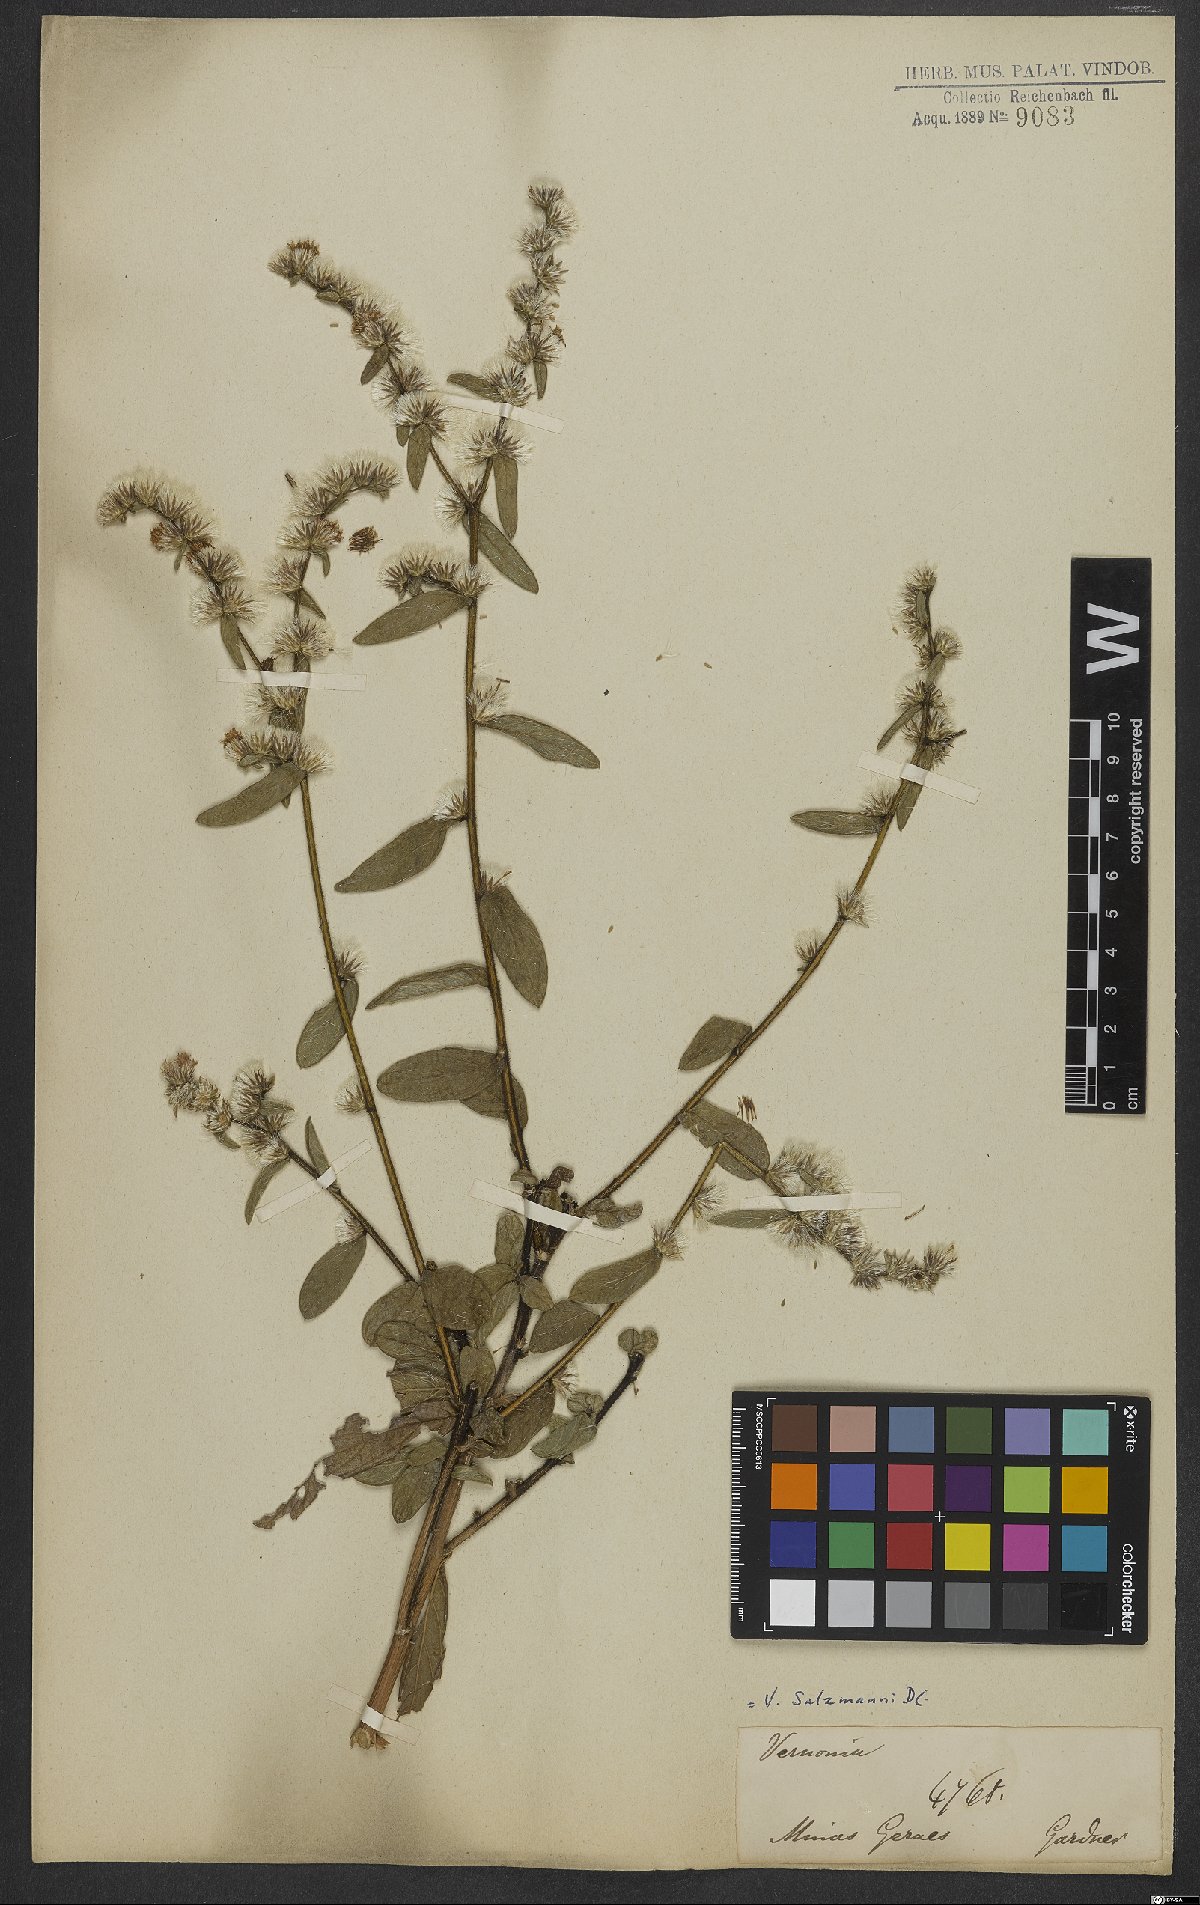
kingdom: Plantae
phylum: Tracheophyta
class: Magnoliopsida
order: Asterales
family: Asteraceae
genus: Lepidaploa
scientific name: Lepidaploa salzmannii
